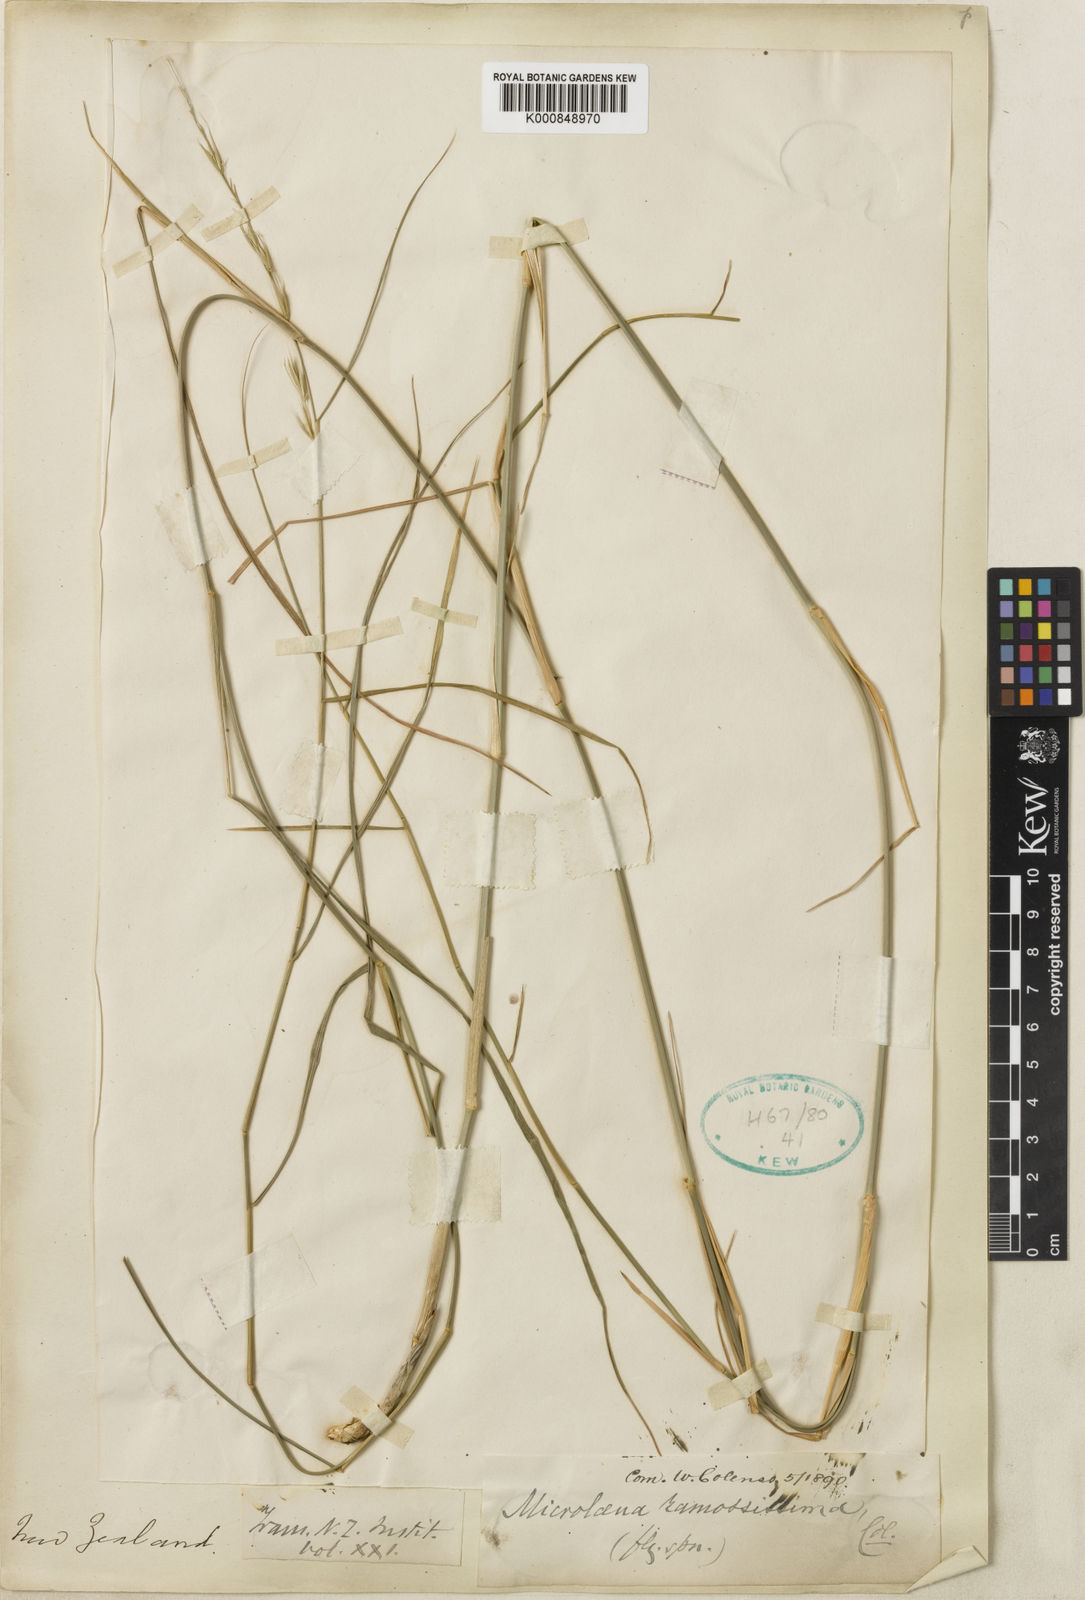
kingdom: Plantae
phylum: Tracheophyta
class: Liliopsida
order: Poales
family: Poaceae
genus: Ehrharta
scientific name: Ehrharta
